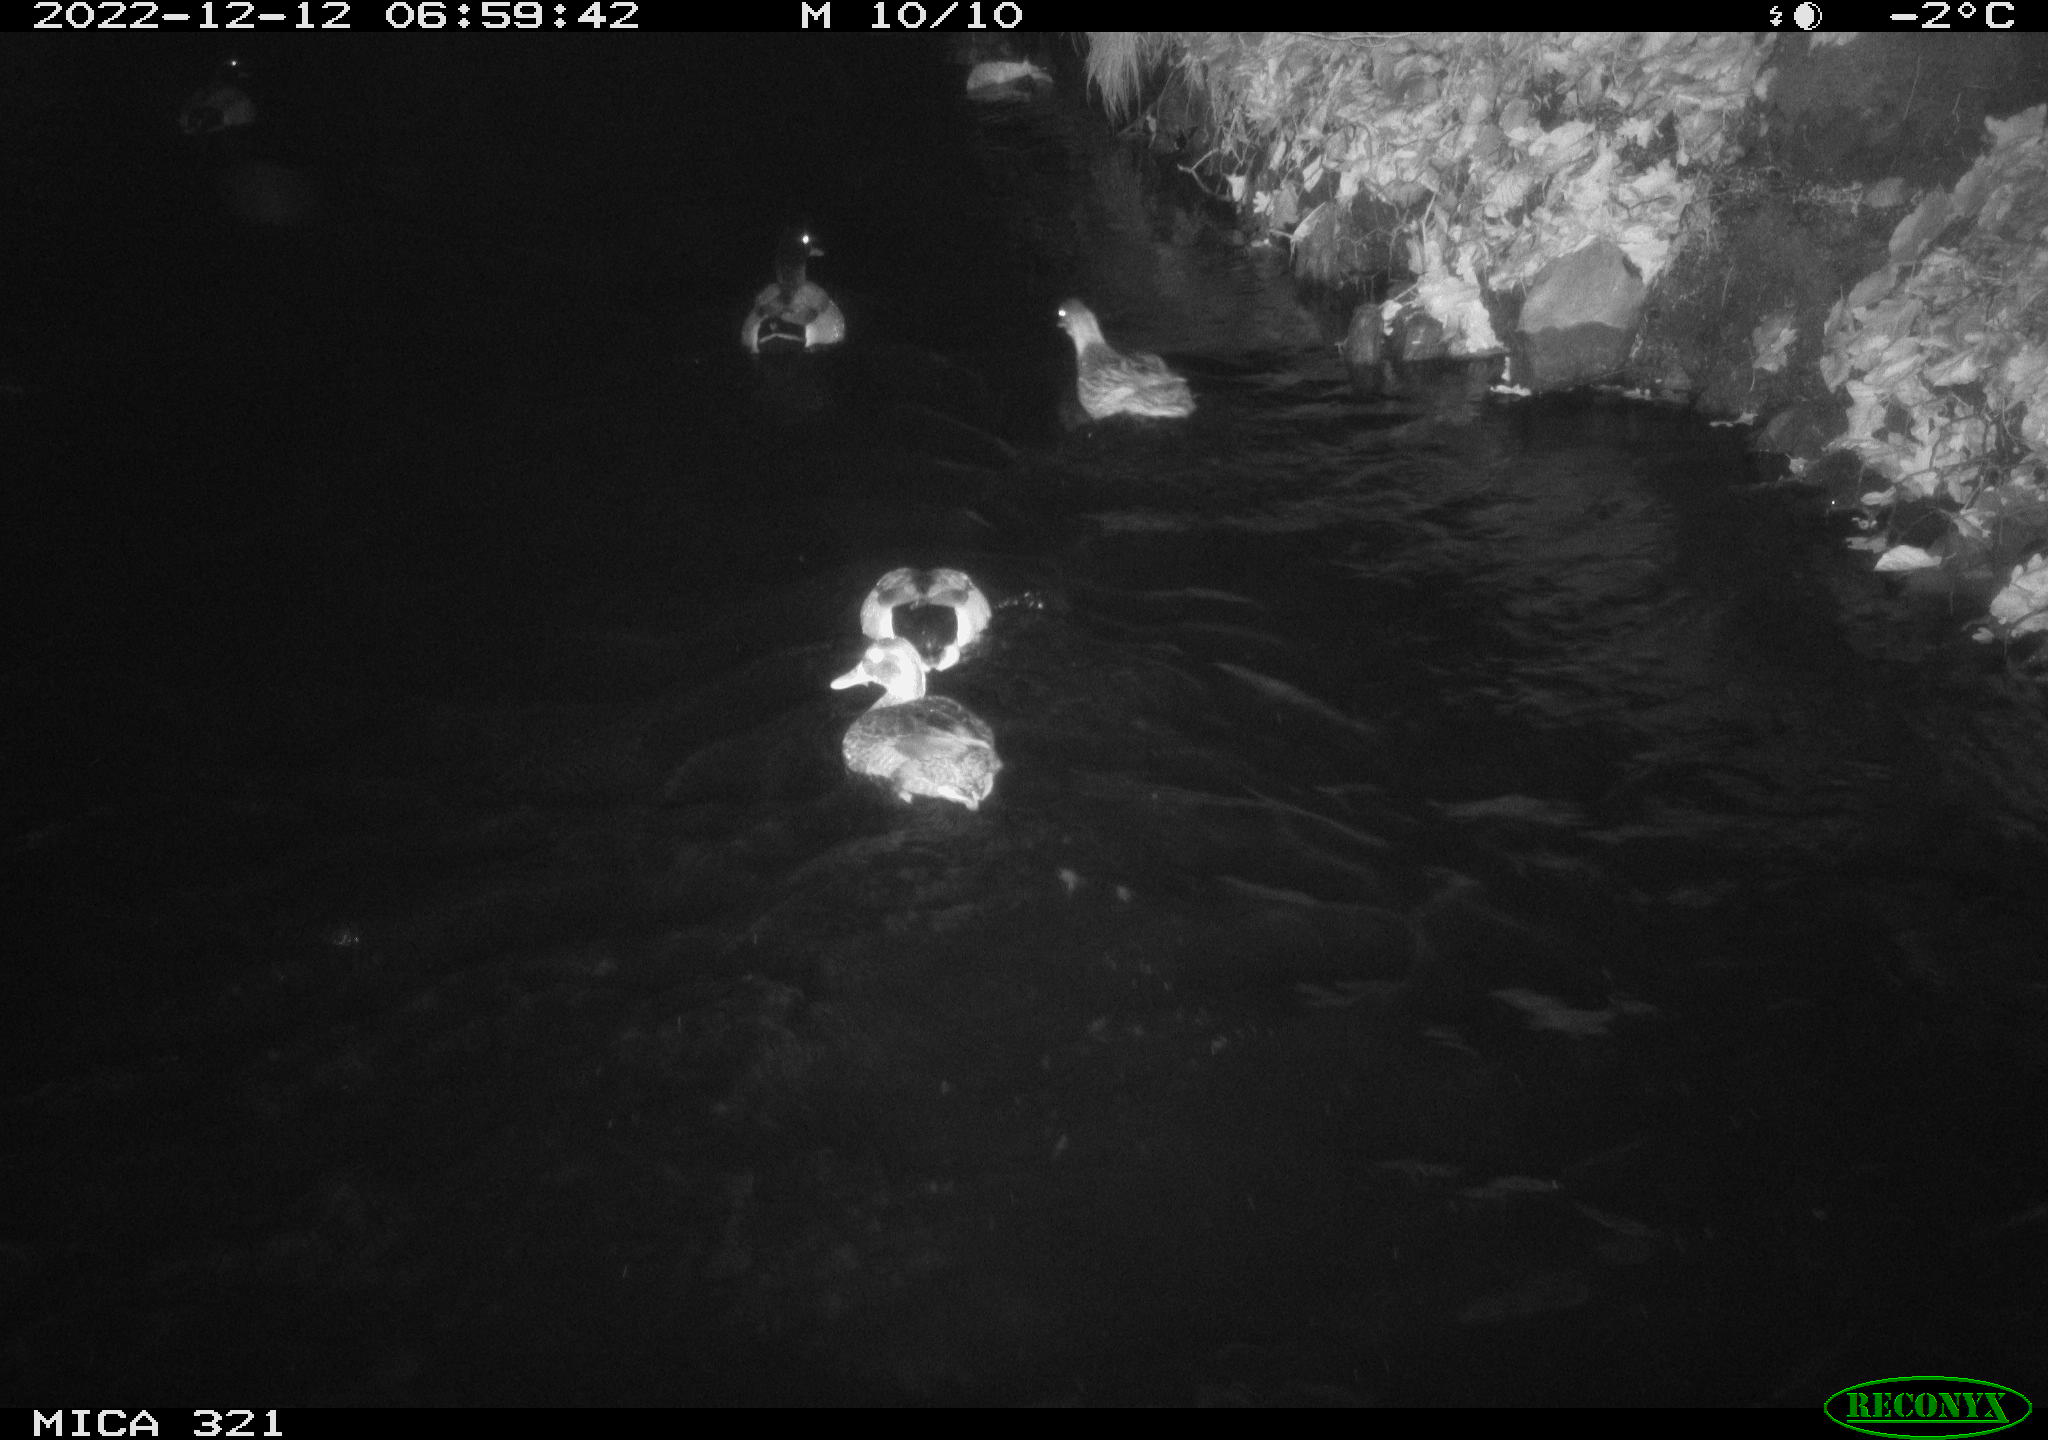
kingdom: Animalia
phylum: Chordata
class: Aves
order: Anseriformes
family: Anatidae
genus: Anas
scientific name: Anas
